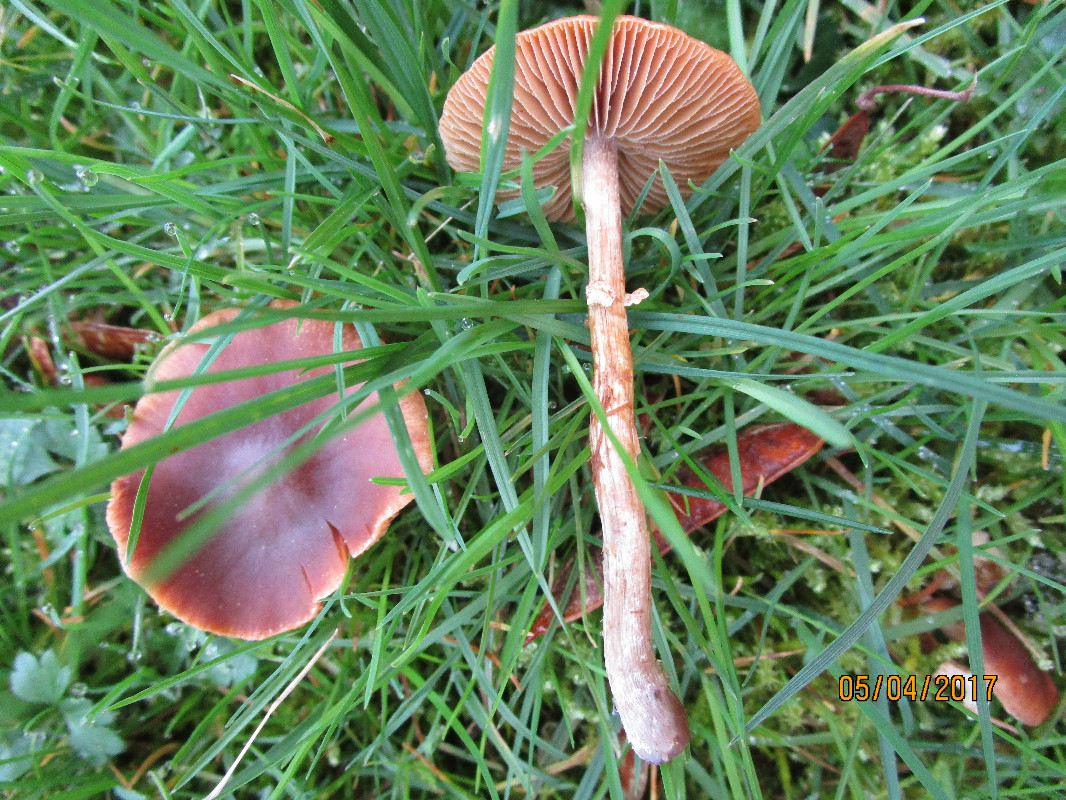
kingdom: Fungi
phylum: Basidiomycota
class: Agaricomycetes
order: Agaricales
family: Bolbitiaceae
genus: Conocybe
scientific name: Conocybe aporos
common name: tidlig dansehat
